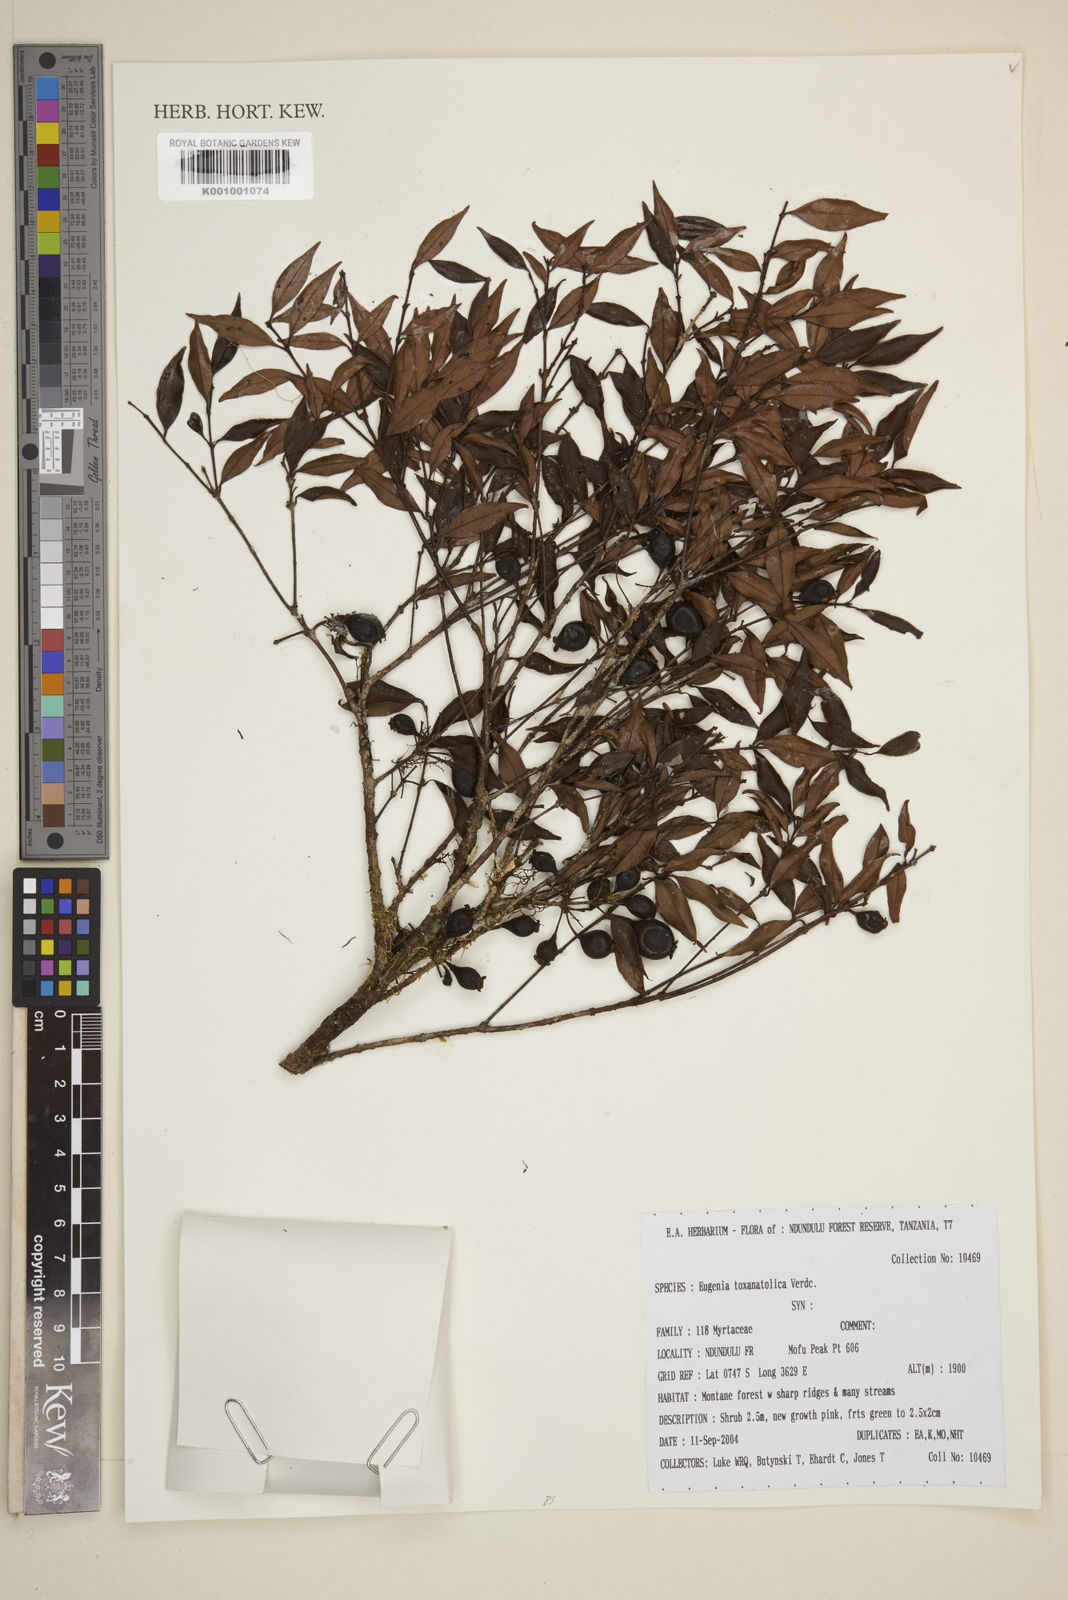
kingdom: Plantae
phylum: Tracheophyta
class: Magnoliopsida
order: Myrtales
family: Myrtaceae
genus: Eugenia
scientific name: Eugenia toxanatolica
